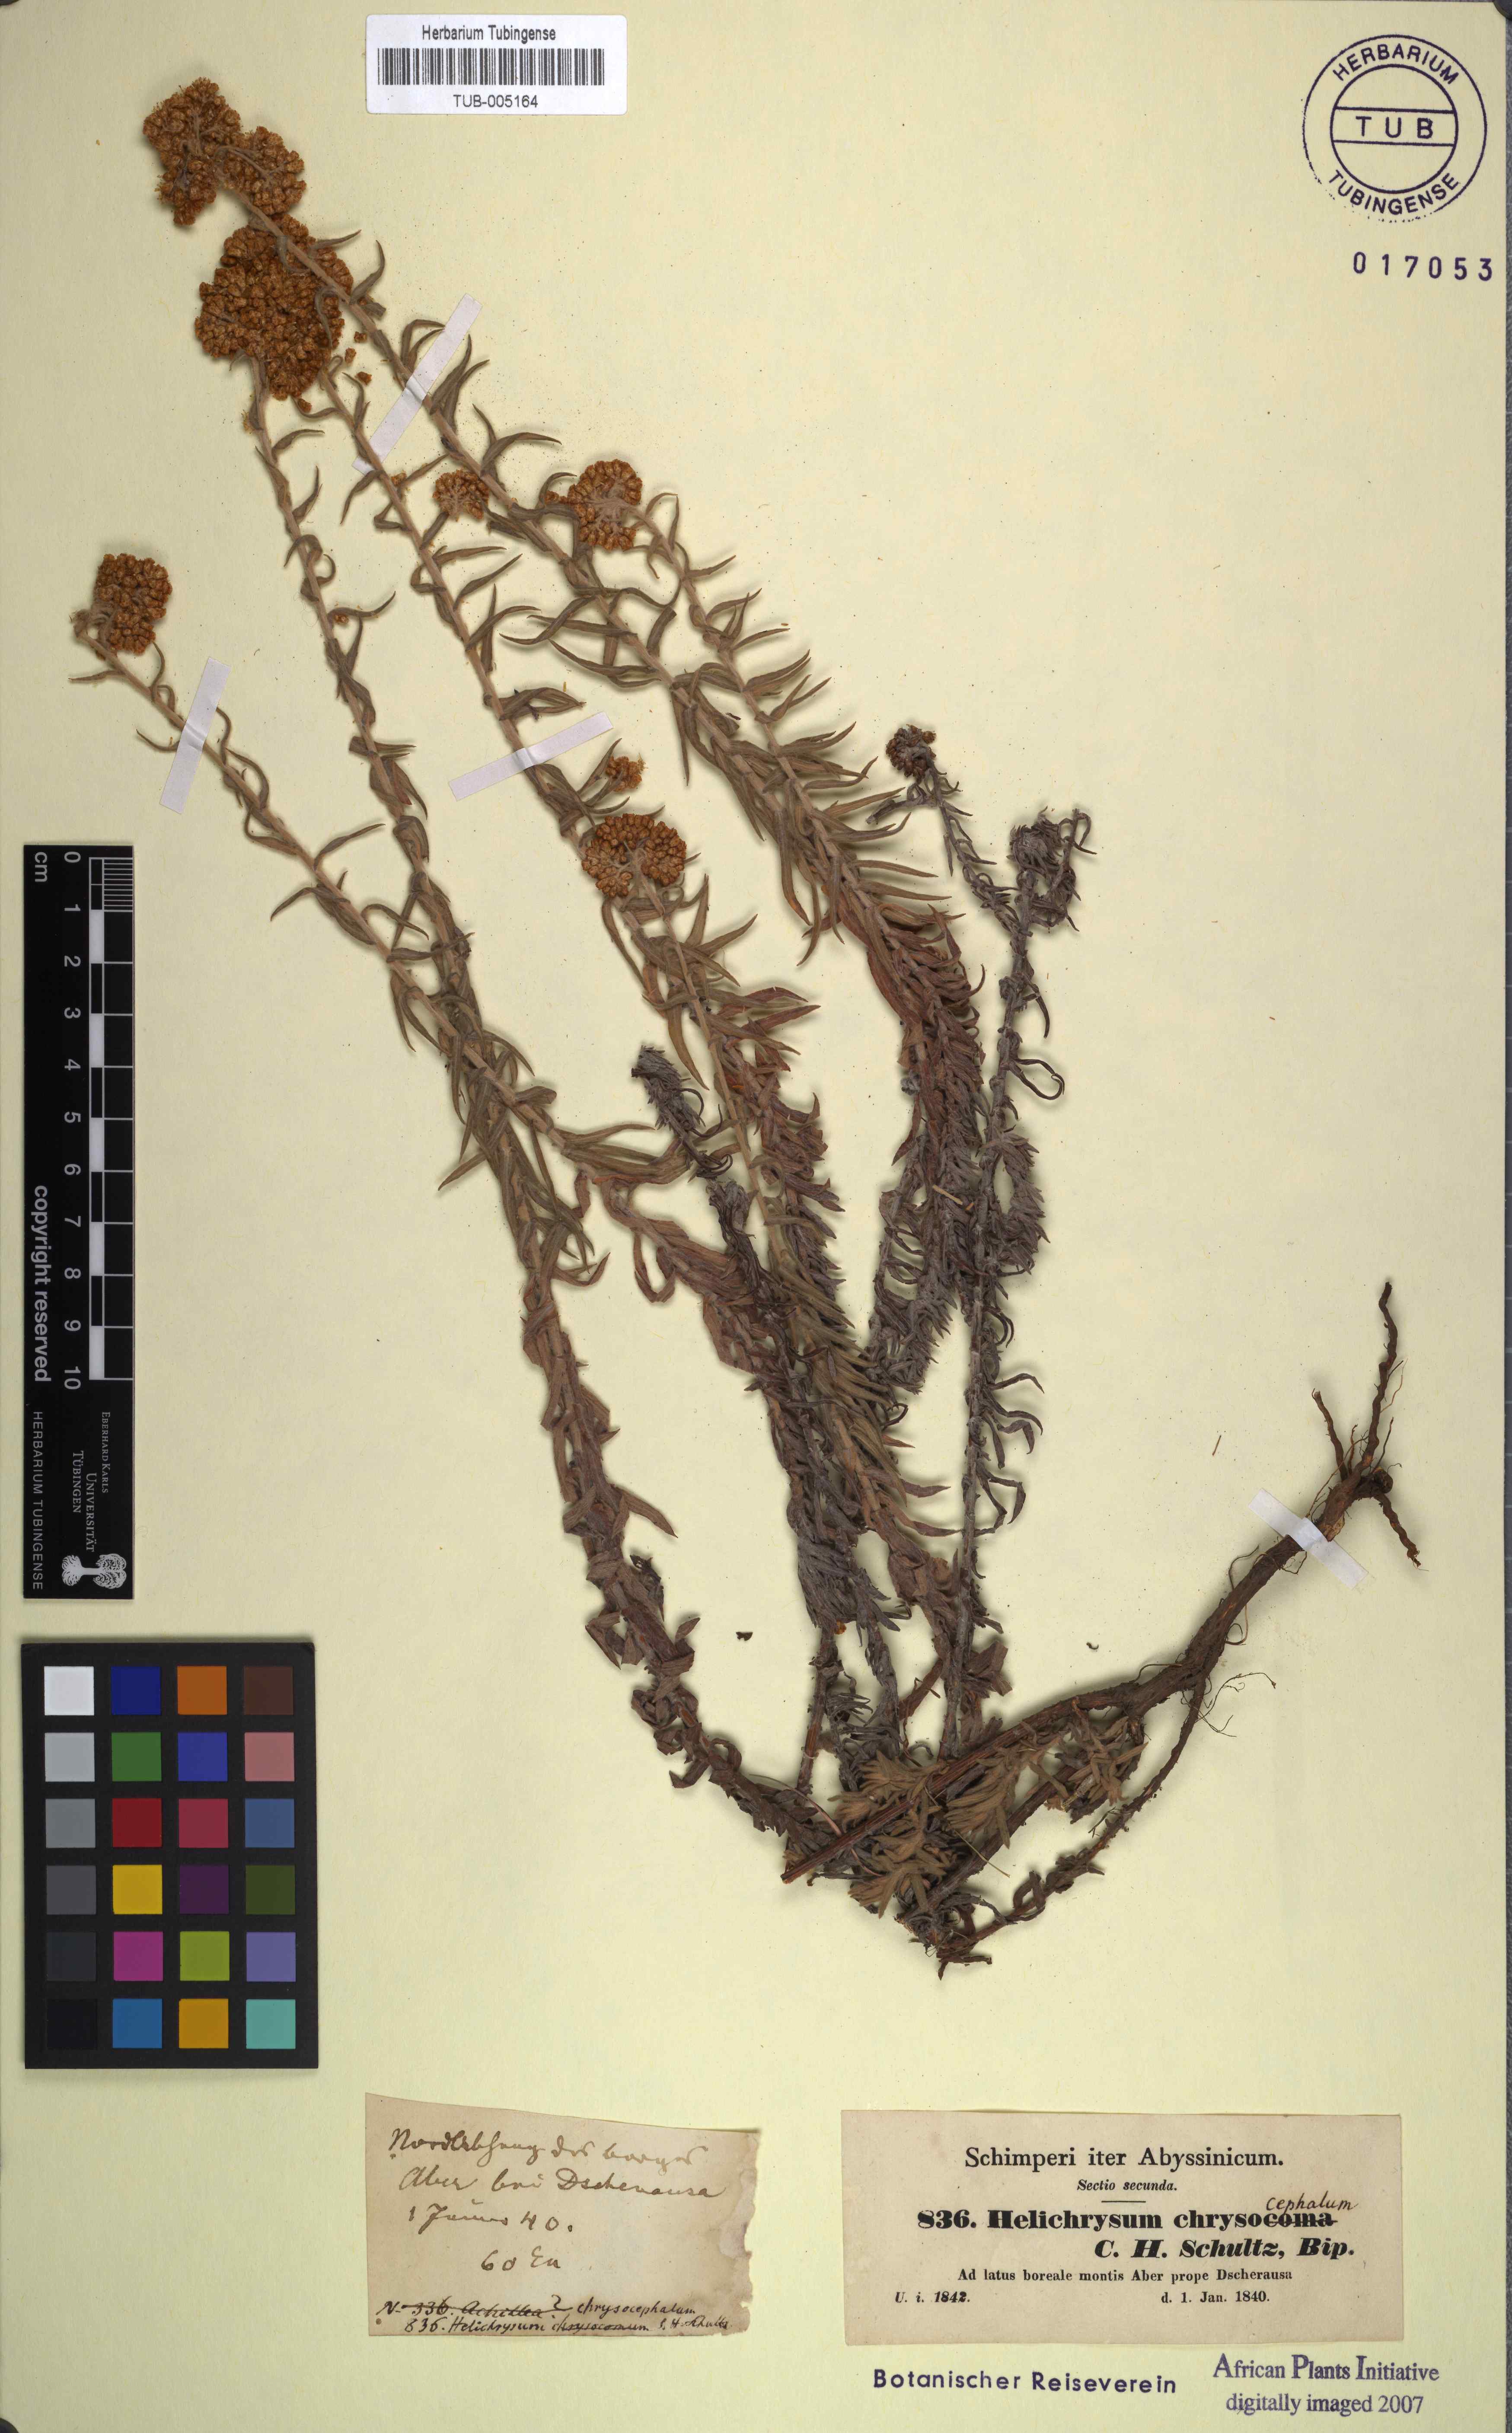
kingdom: Plantae
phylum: Tracheophyta
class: Magnoliopsida
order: Asterales
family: Asteraceae
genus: Helichrysum
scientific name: Helichrysum cymosum
